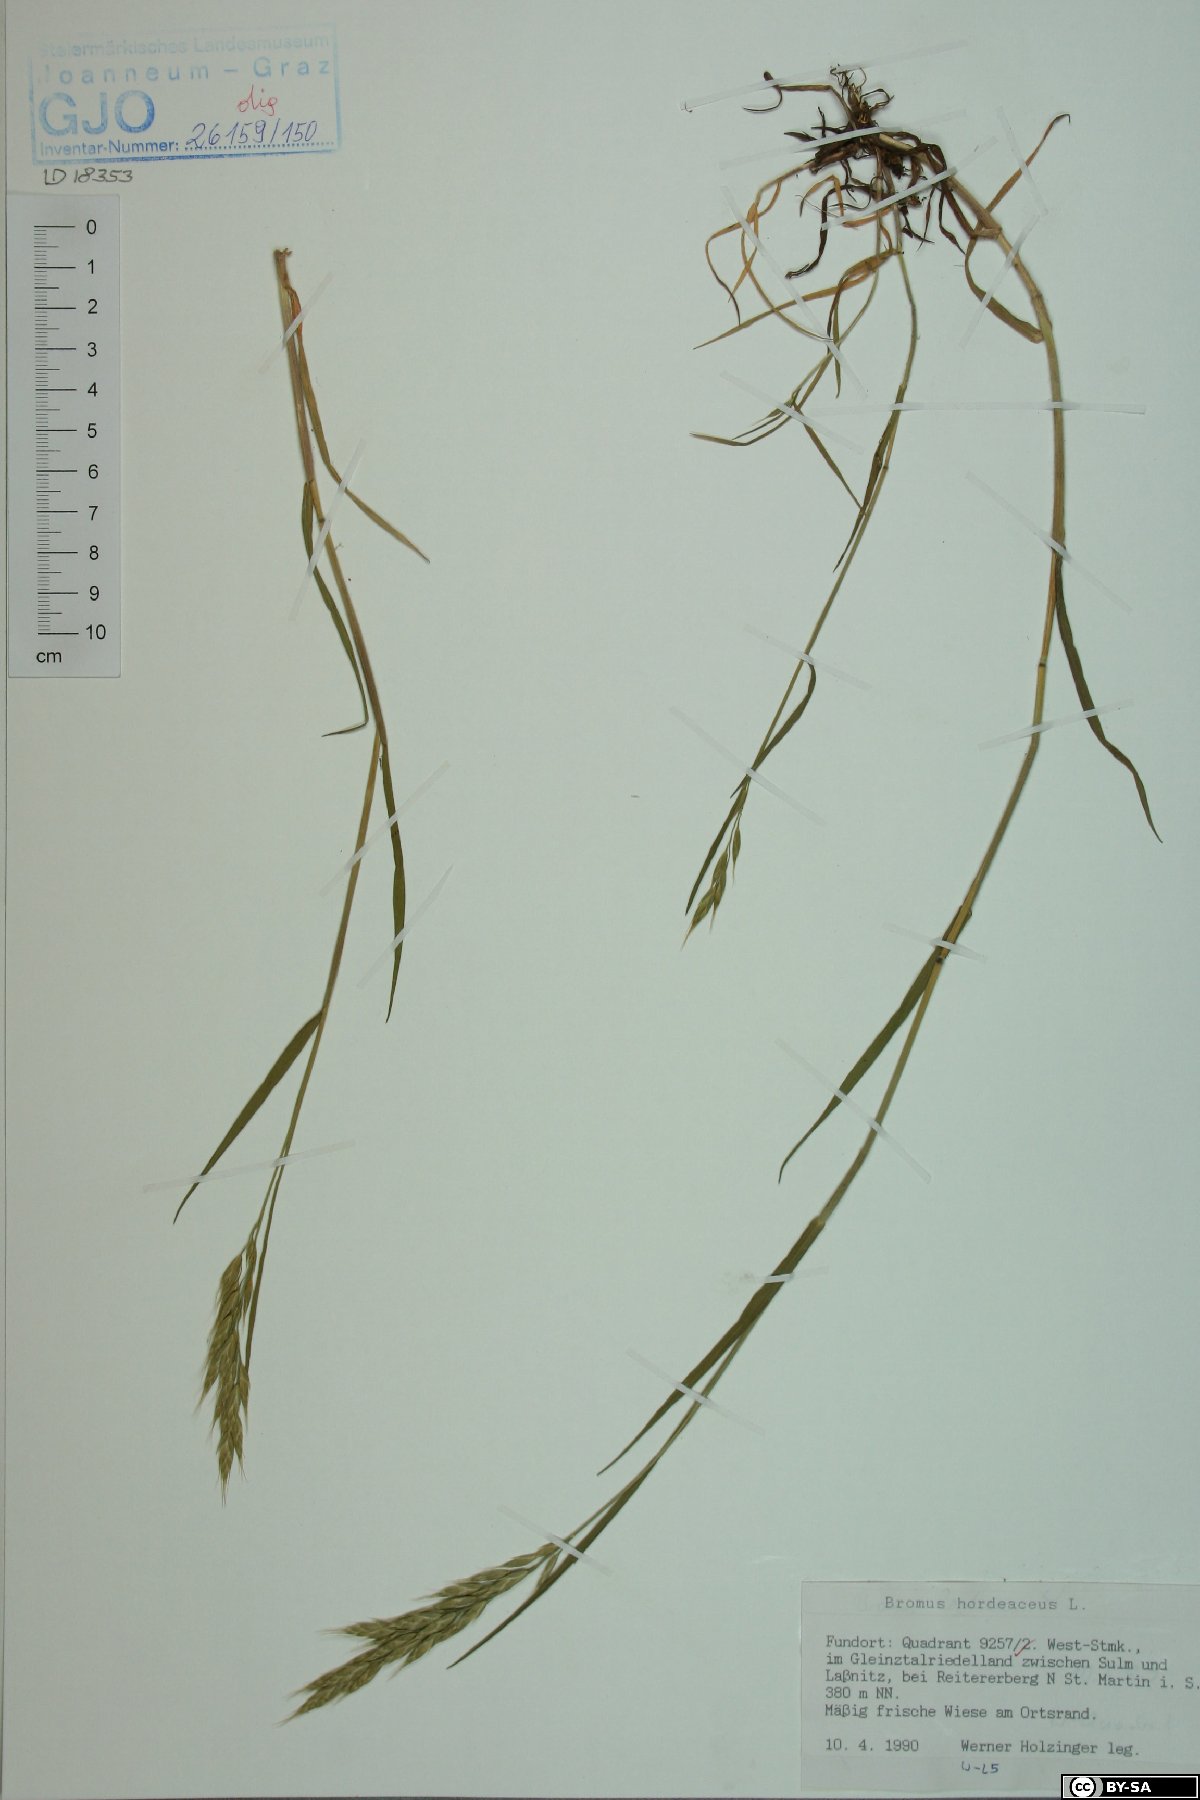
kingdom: Plantae
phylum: Tracheophyta
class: Liliopsida
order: Poales
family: Poaceae
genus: Bromus
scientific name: Bromus hordeaceus
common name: Soft brome
